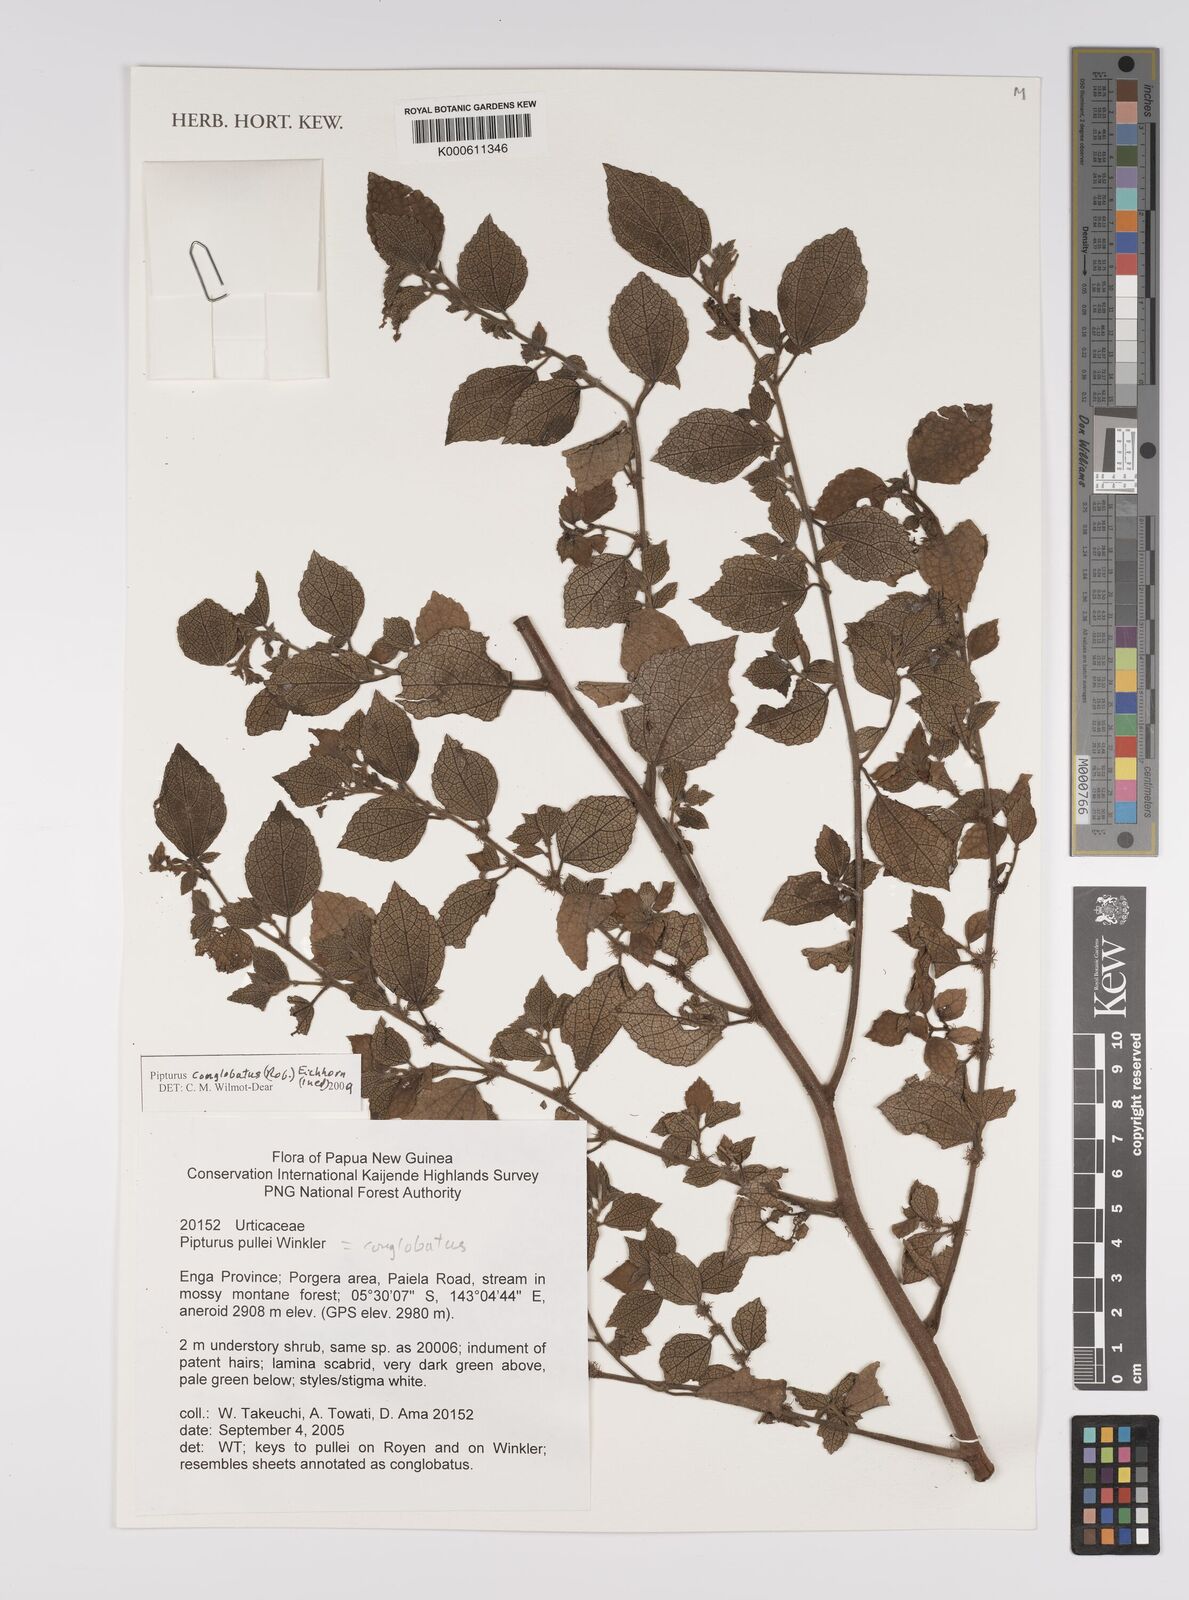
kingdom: Plantae
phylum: Tracheophyta
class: Magnoliopsida
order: Rosales
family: Urticaceae
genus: Pipturus
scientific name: Pipturus
